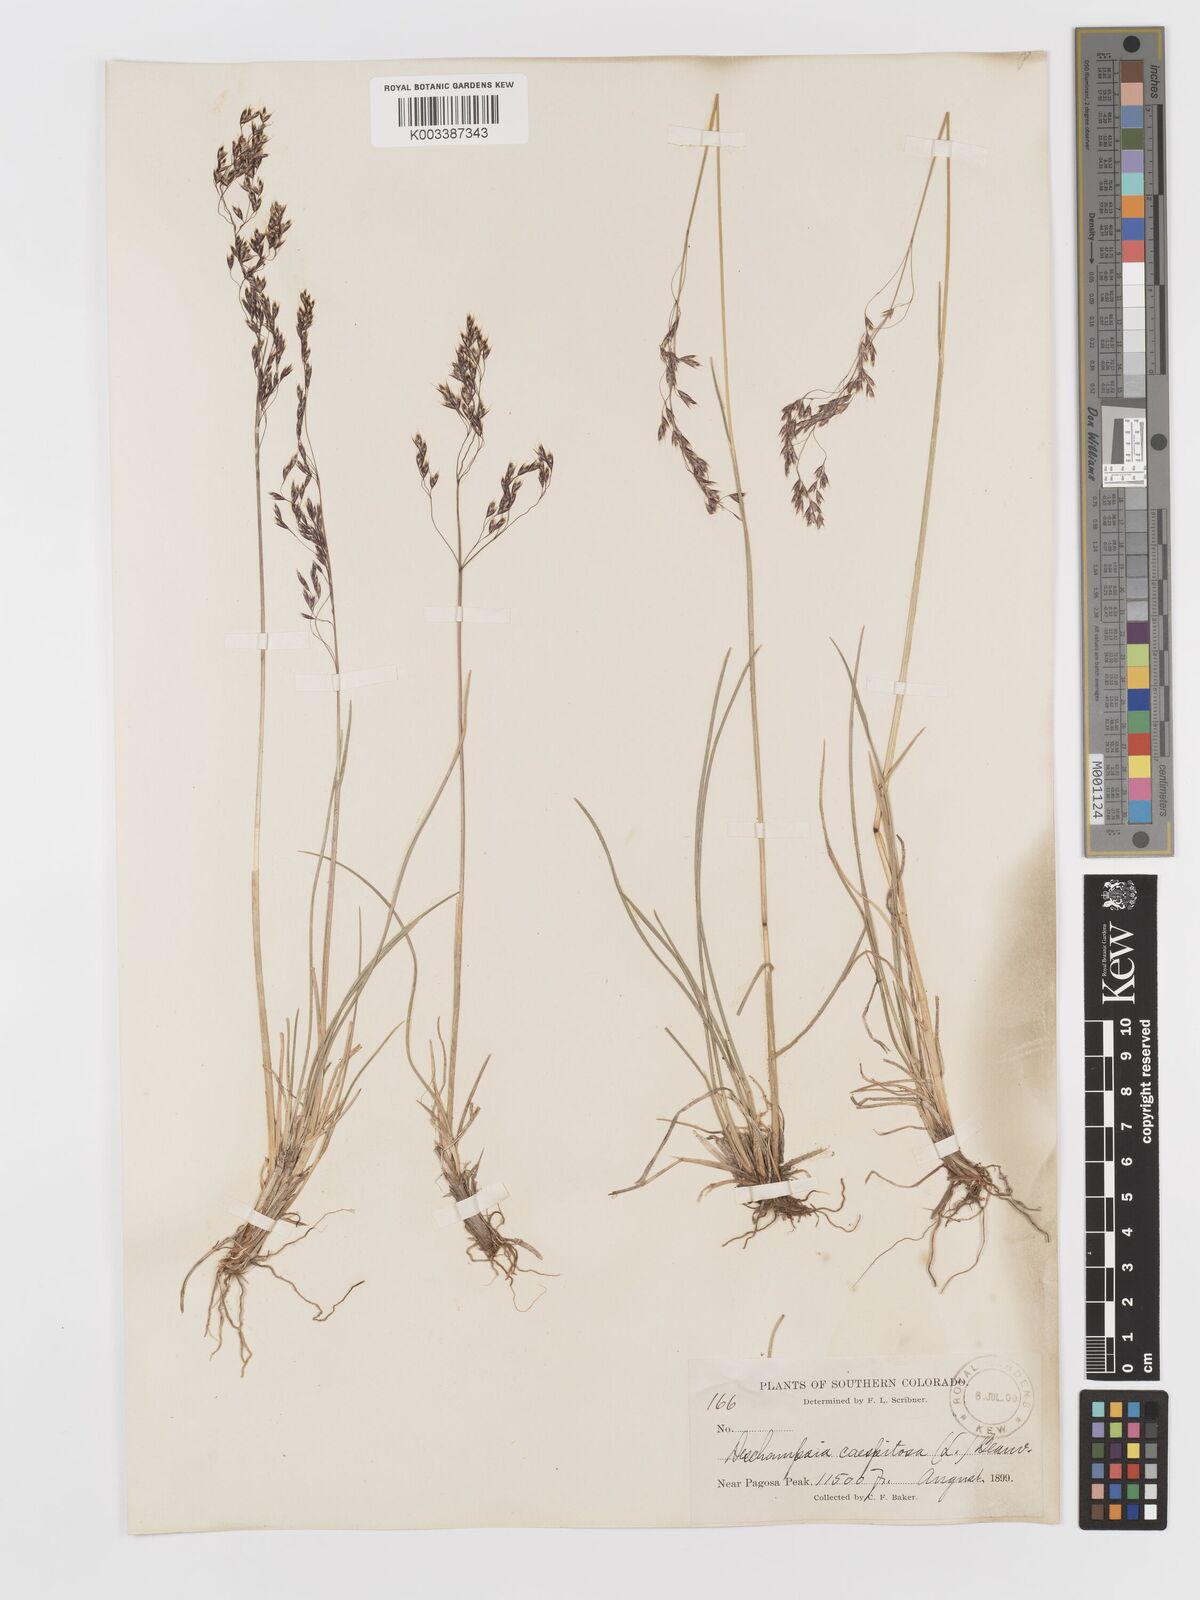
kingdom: Plantae
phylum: Tracheophyta
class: Liliopsida
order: Poales
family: Poaceae
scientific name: Poaceae
